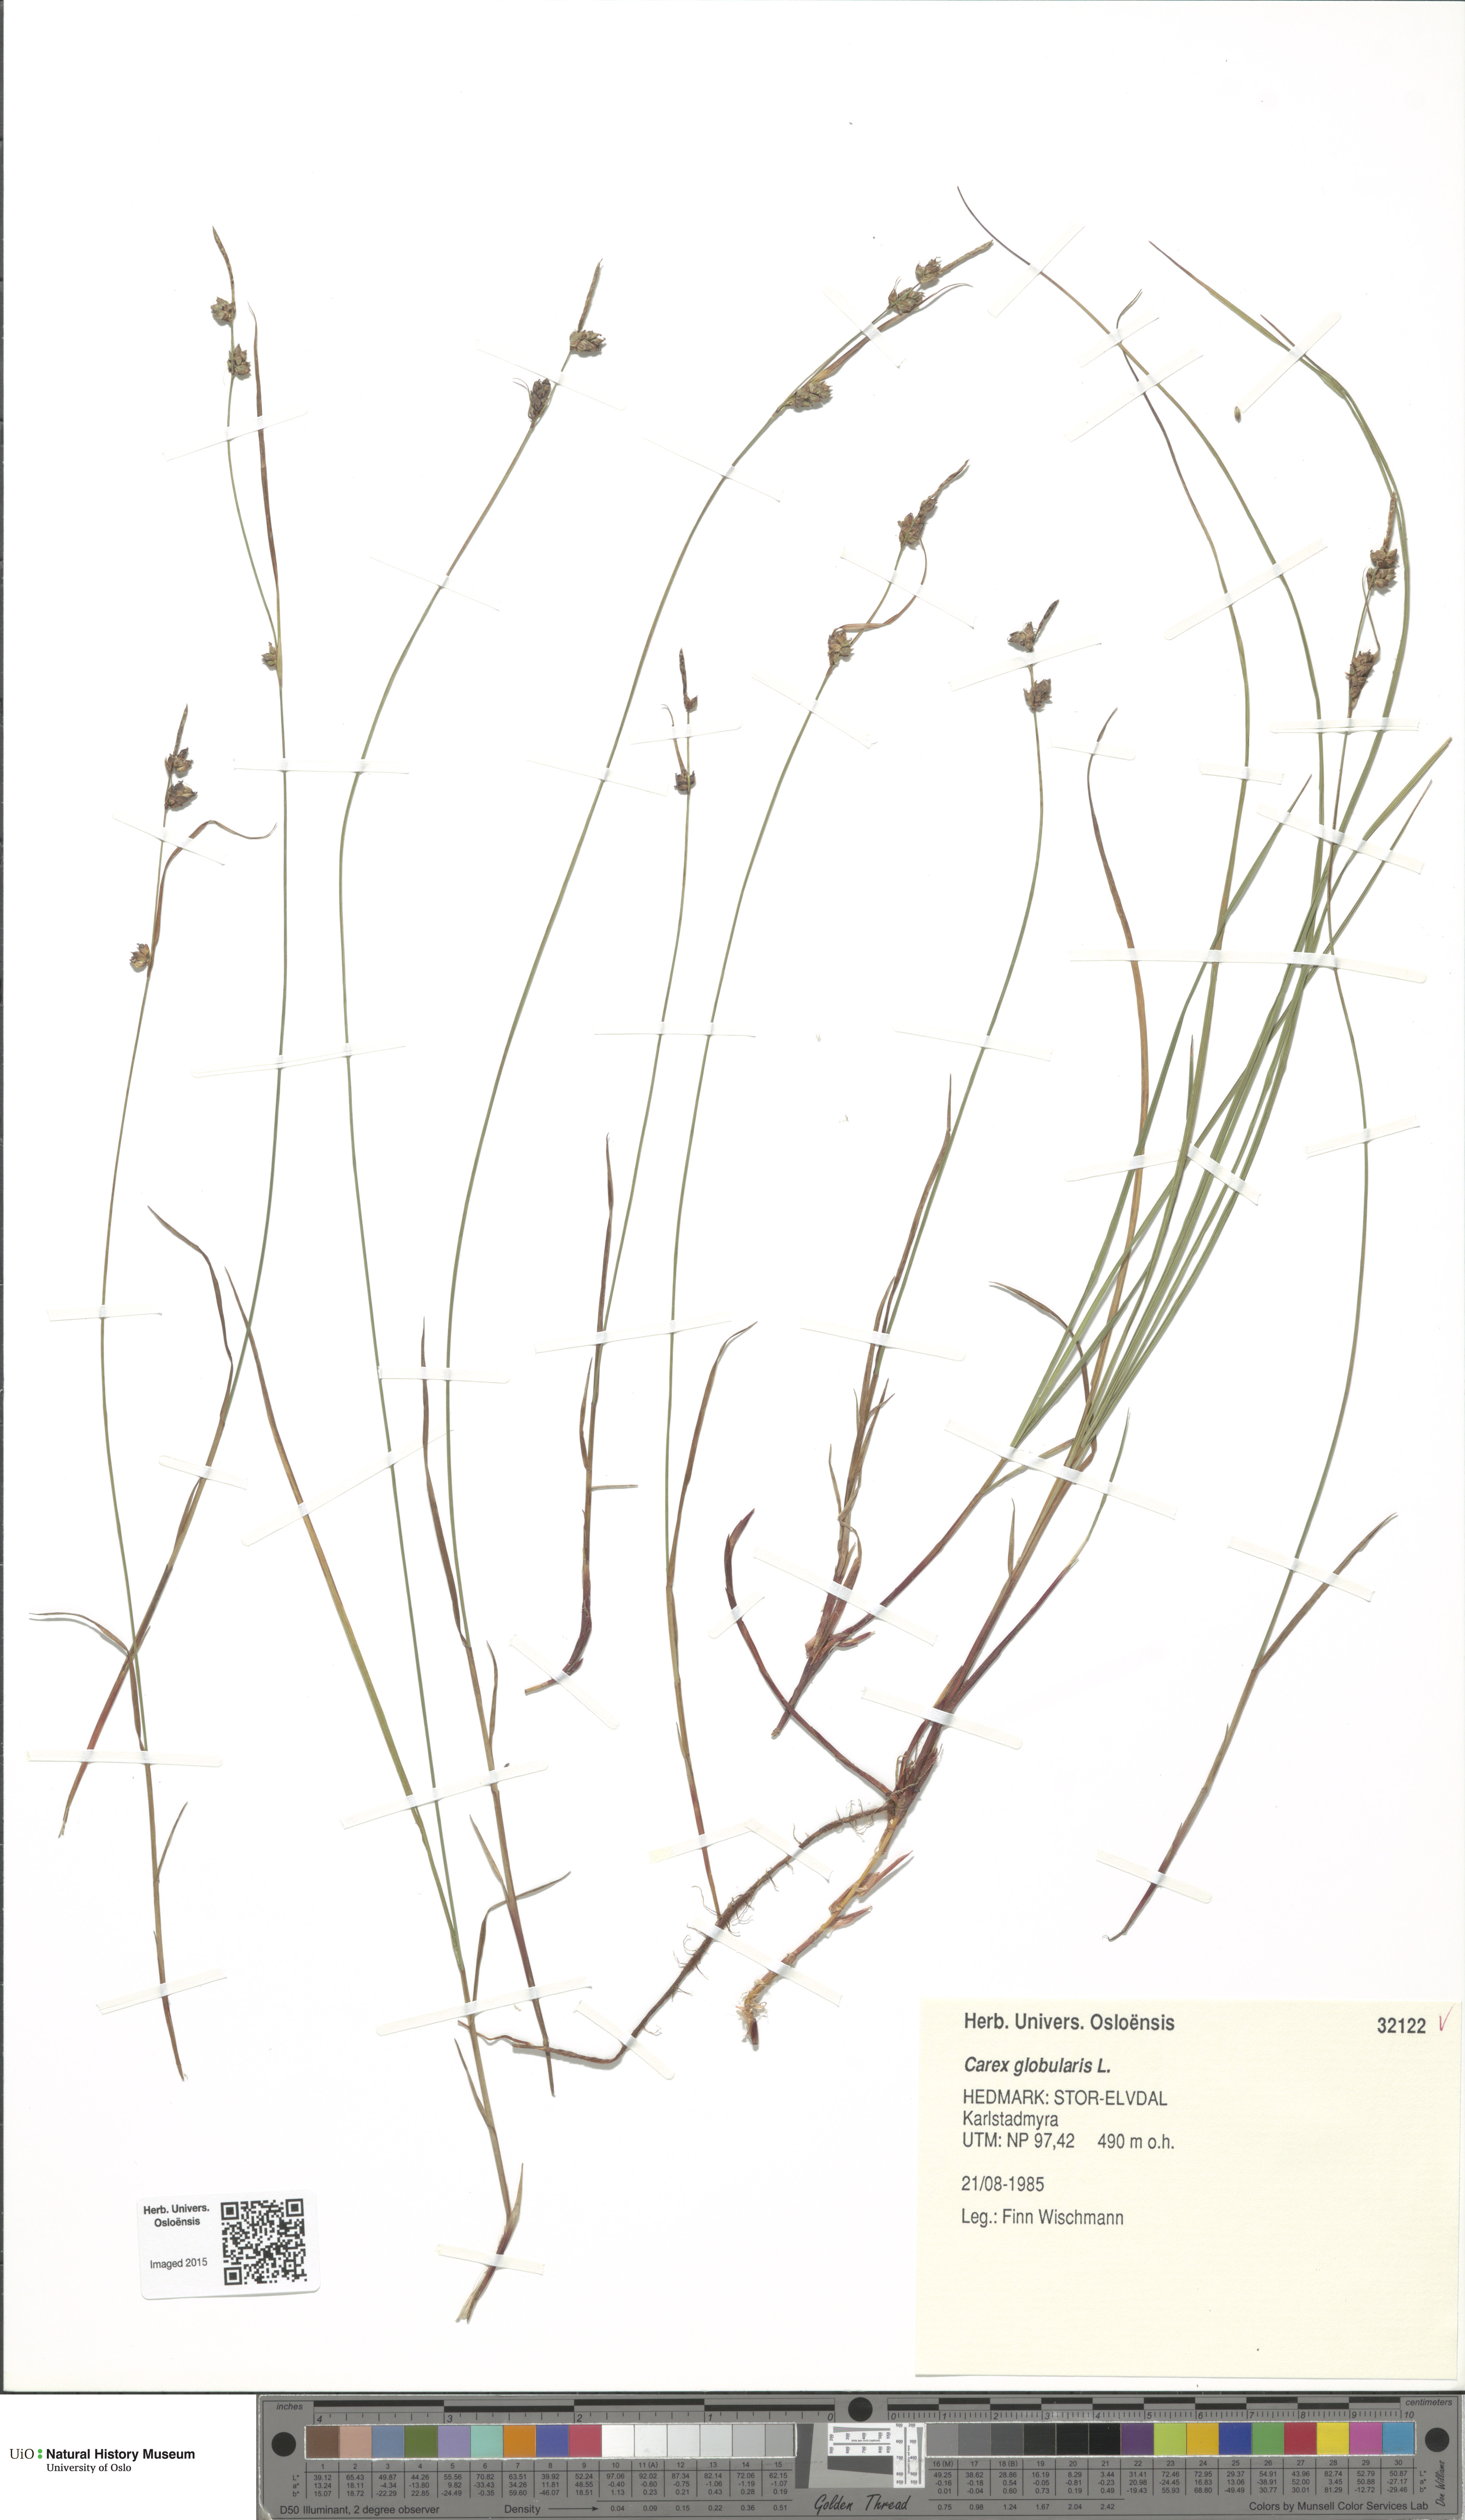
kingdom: Plantae
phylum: Tracheophyta
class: Liliopsida
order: Poales
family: Cyperaceae
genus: Carex
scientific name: Carex globularis
